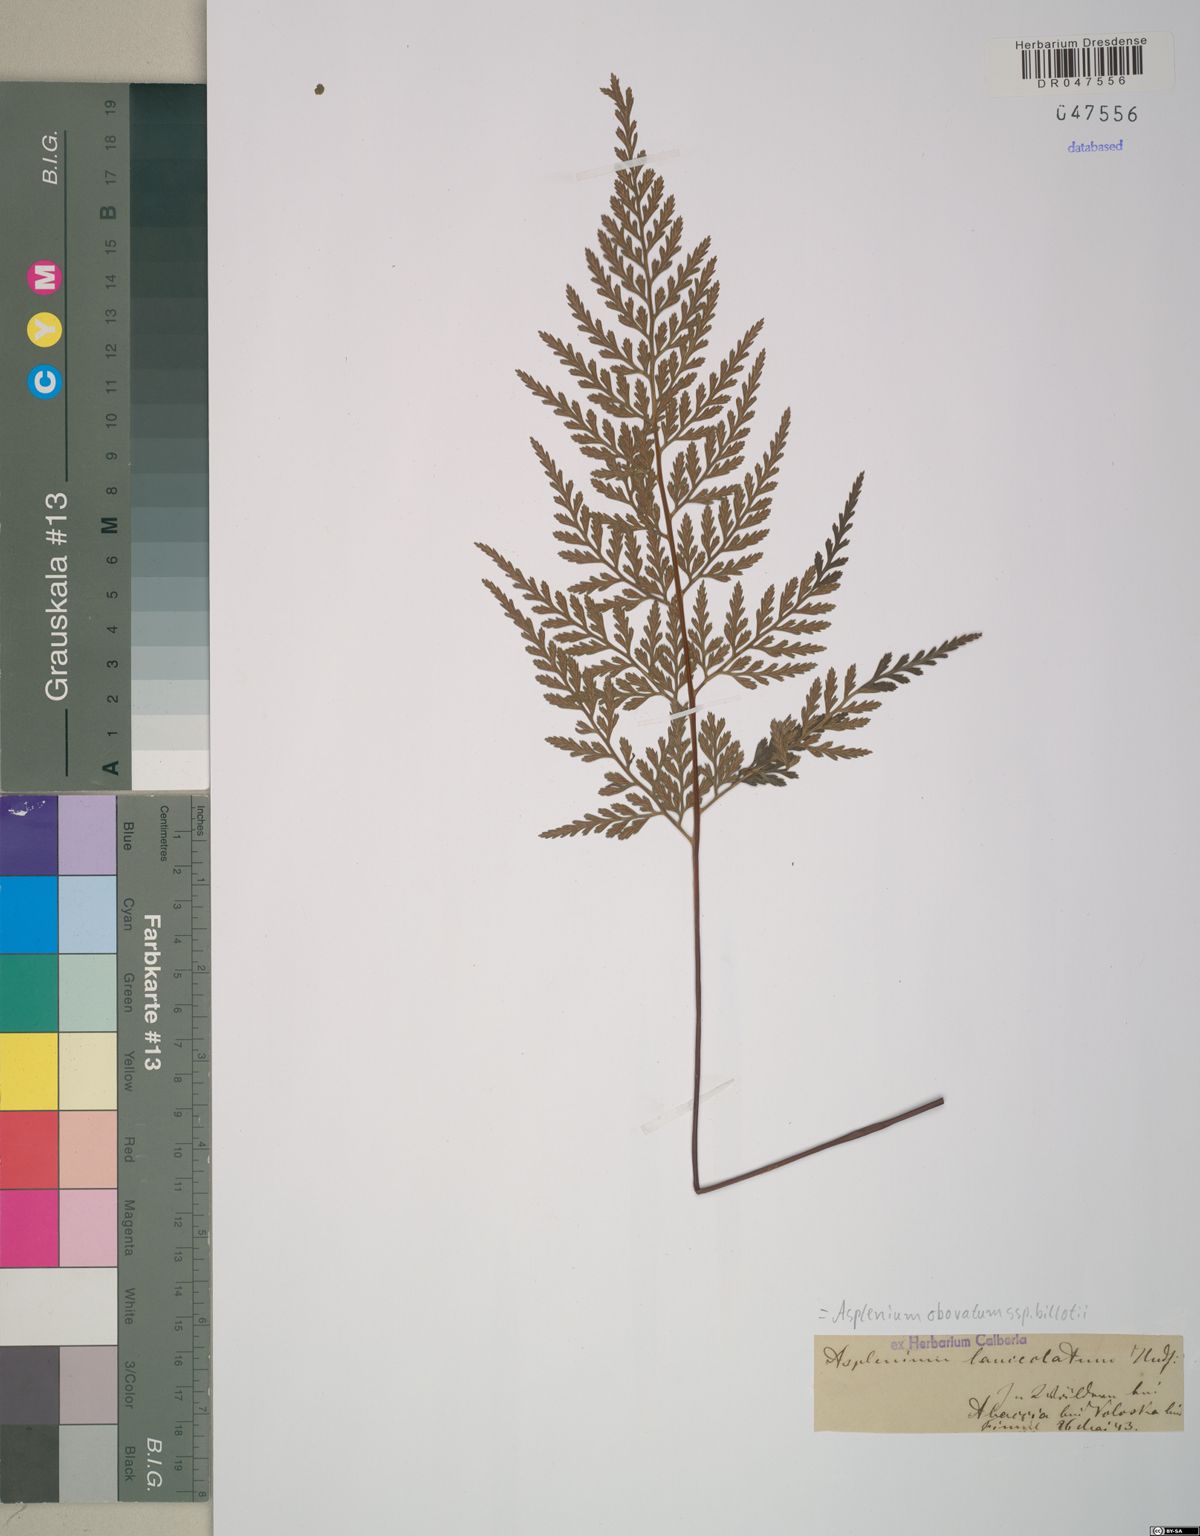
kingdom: Plantae
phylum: Tracheophyta
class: Polypodiopsida
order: Polypodiales
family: Aspleniaceae
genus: Asplenium
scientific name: Asplenium obovatum
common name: Lanceolate spleenwort
